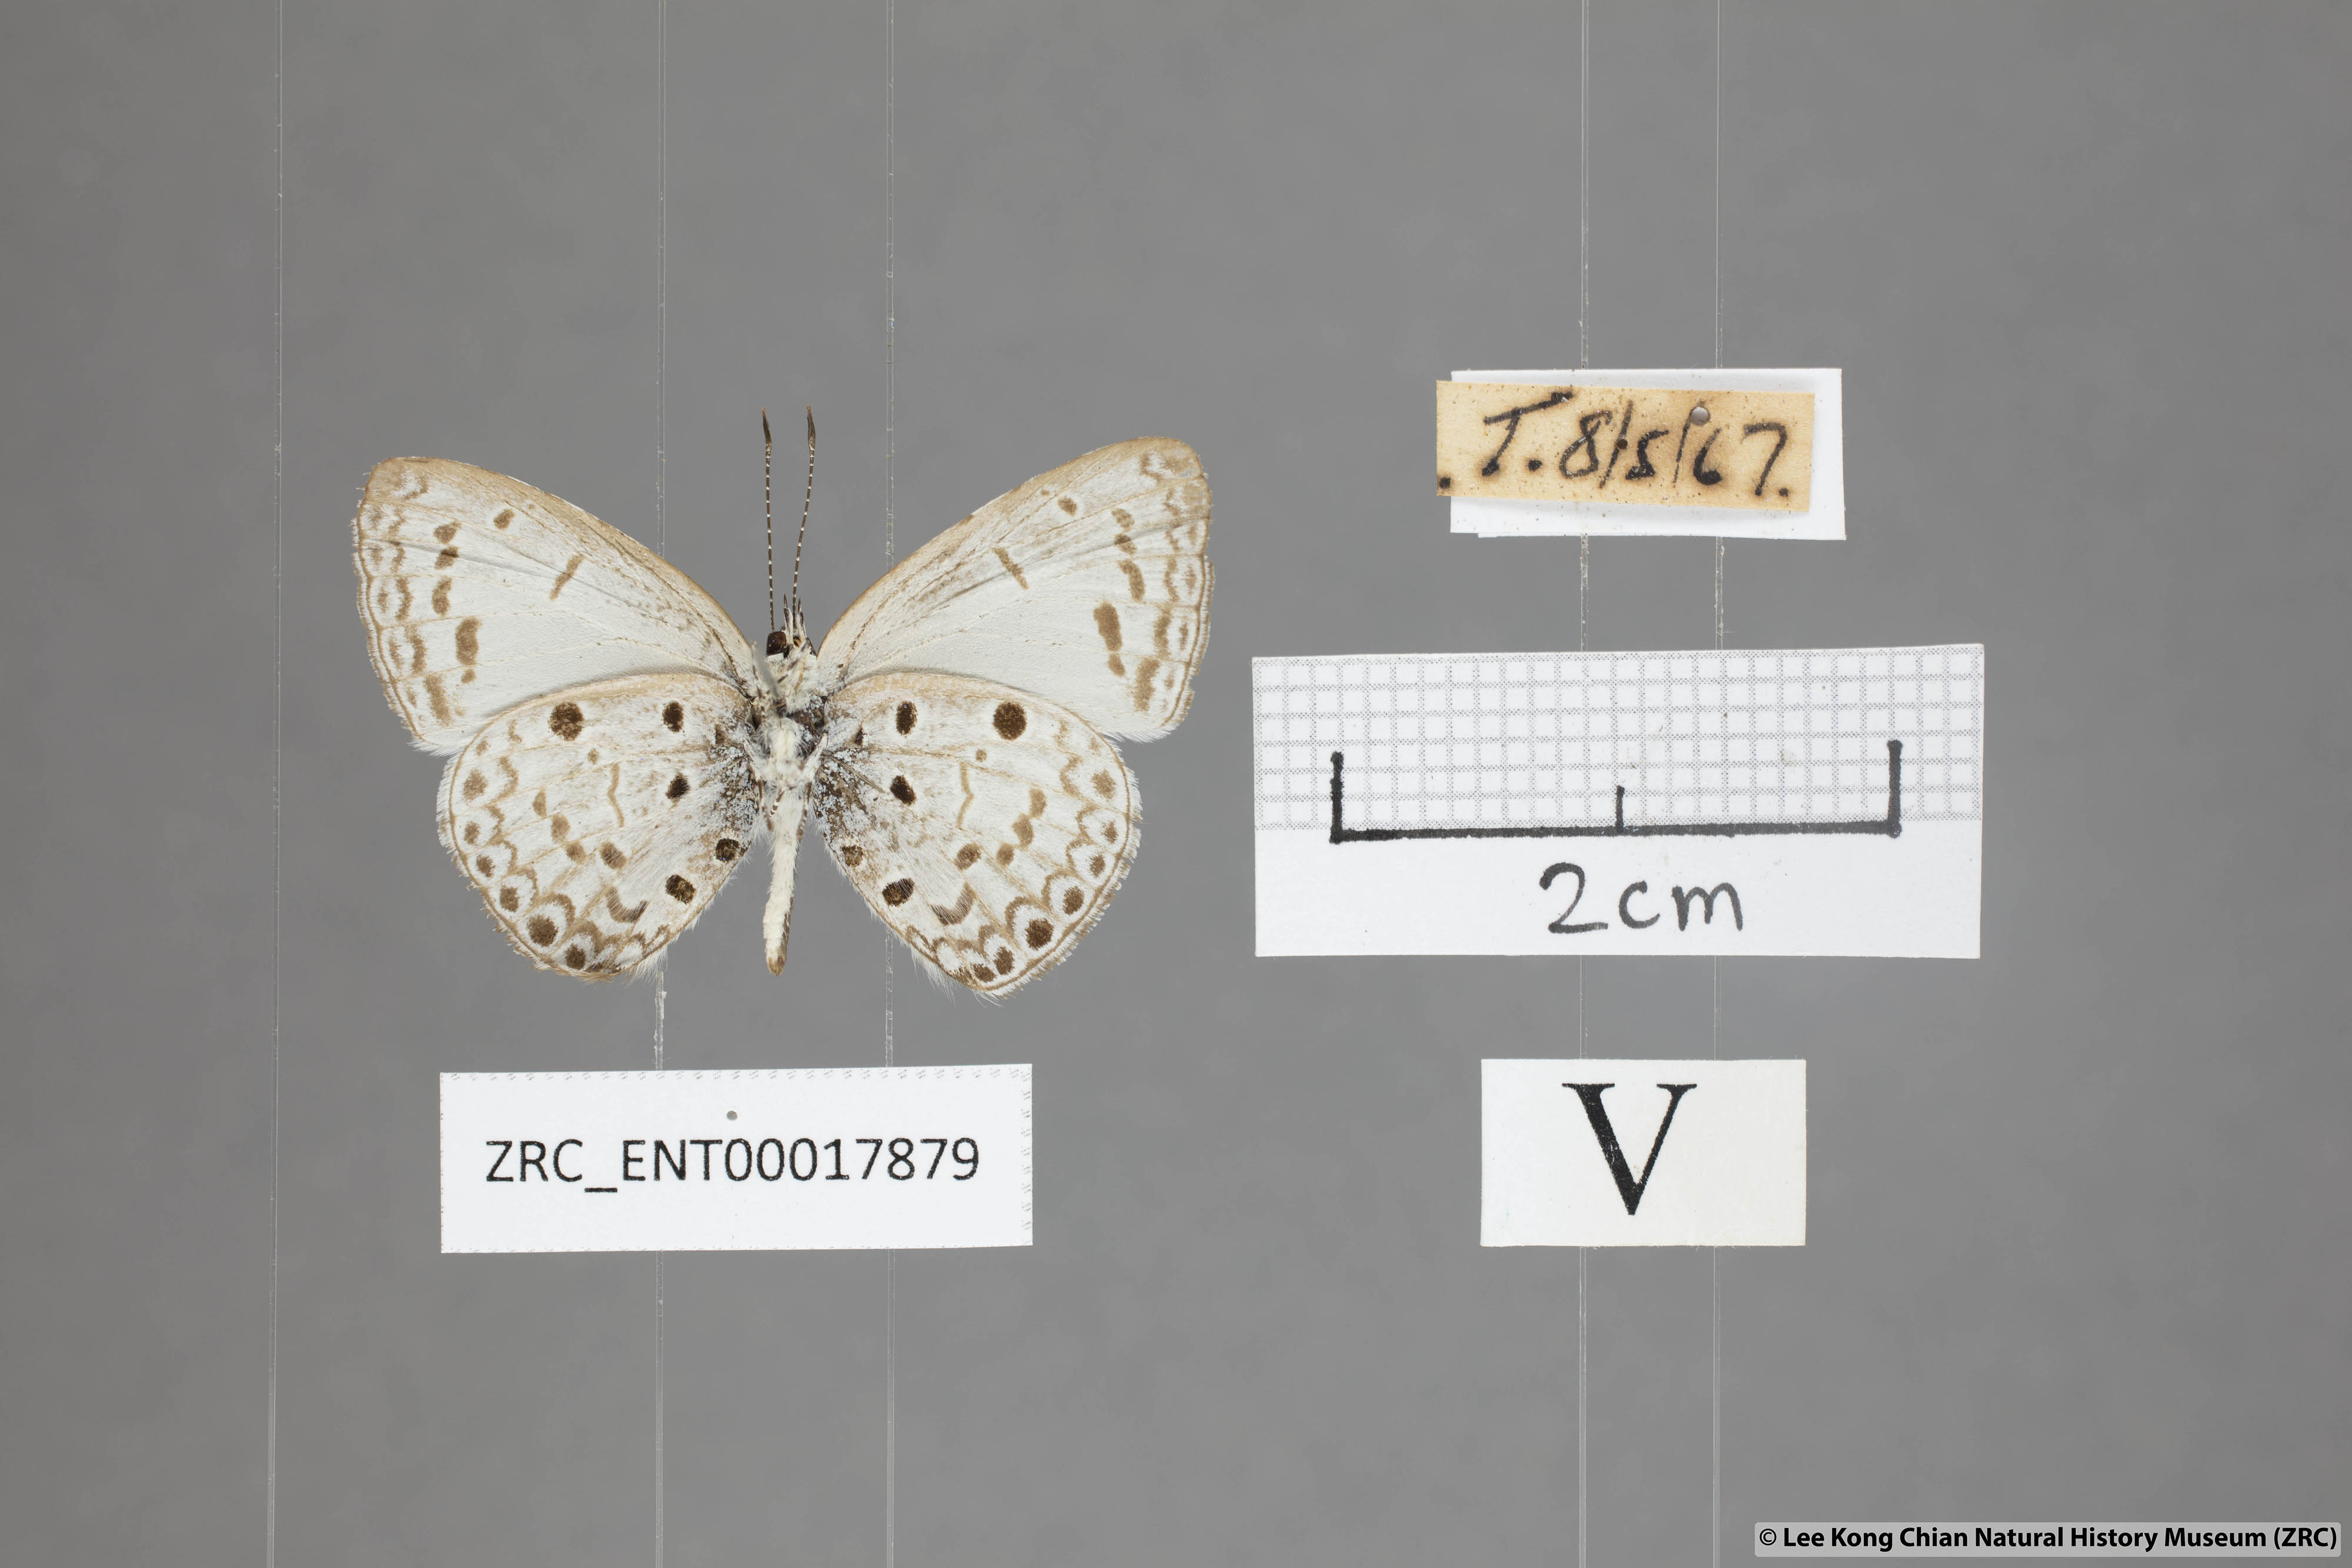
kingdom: Animalia
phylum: Arthropoda
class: Insecta
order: Lepidoptera
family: Lycaenidae
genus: Acytolepis
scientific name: Acytolepis puspa
